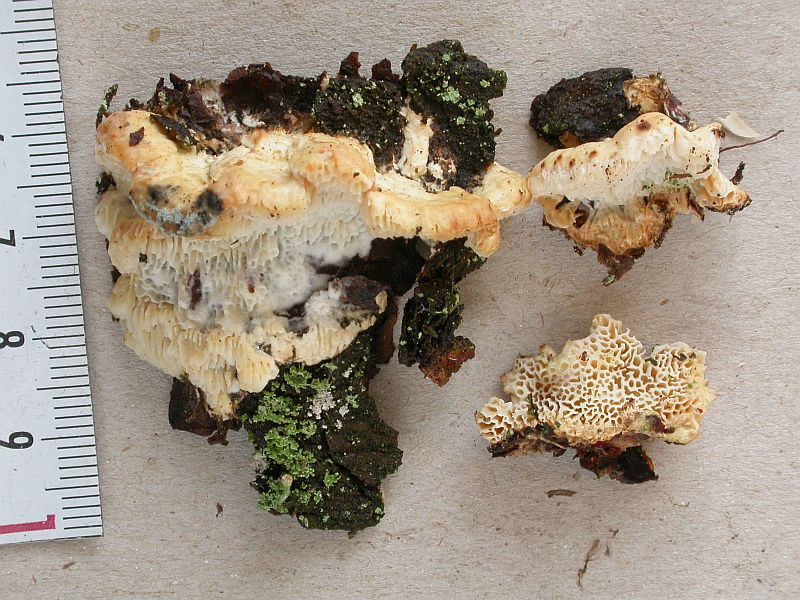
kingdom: Fungi
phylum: Basidiomycota
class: Agaricomycetes
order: Polyporales
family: Fomitopsidaceae
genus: Fomitopsis
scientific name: Fomitopsis
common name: fyrre-skiveporesvamp
